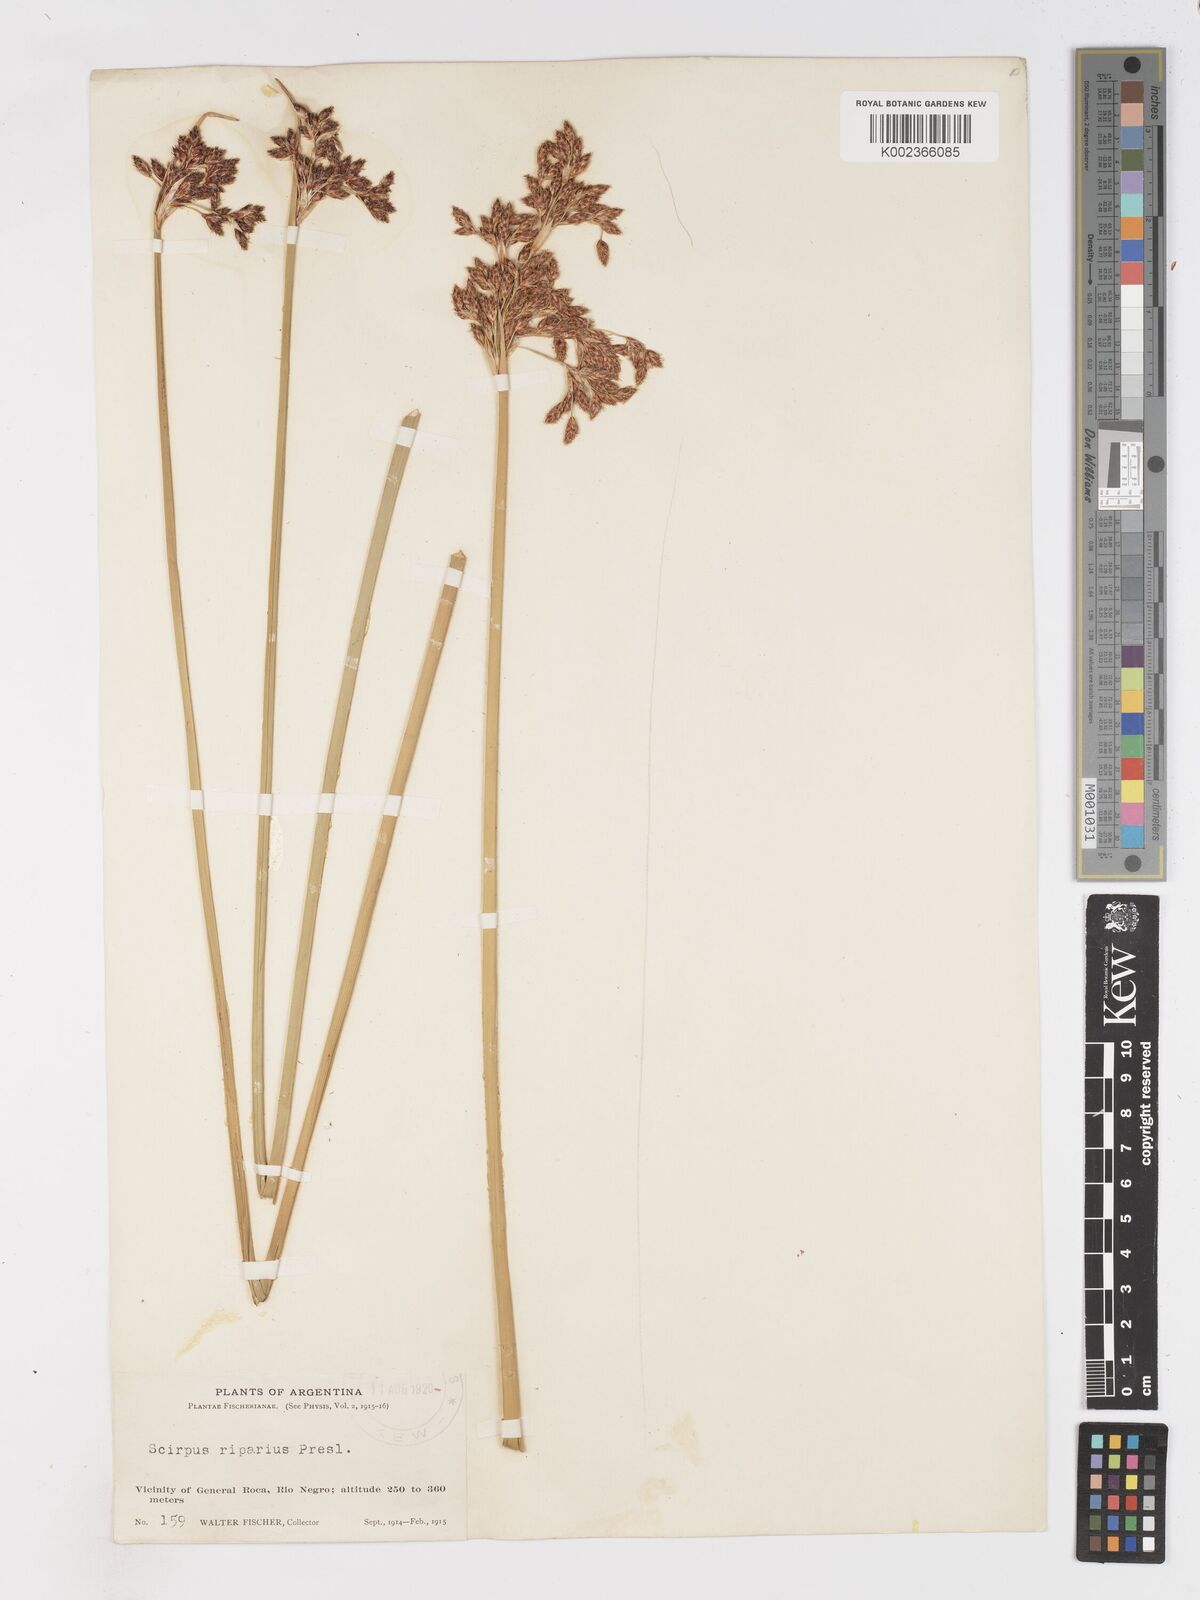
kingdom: Plantae
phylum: Tracheophyta
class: Liliopsida
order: Poales
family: Cyperaceae
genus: Schoenoplectus
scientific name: Schoenoplectus californicus
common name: California bulrush
